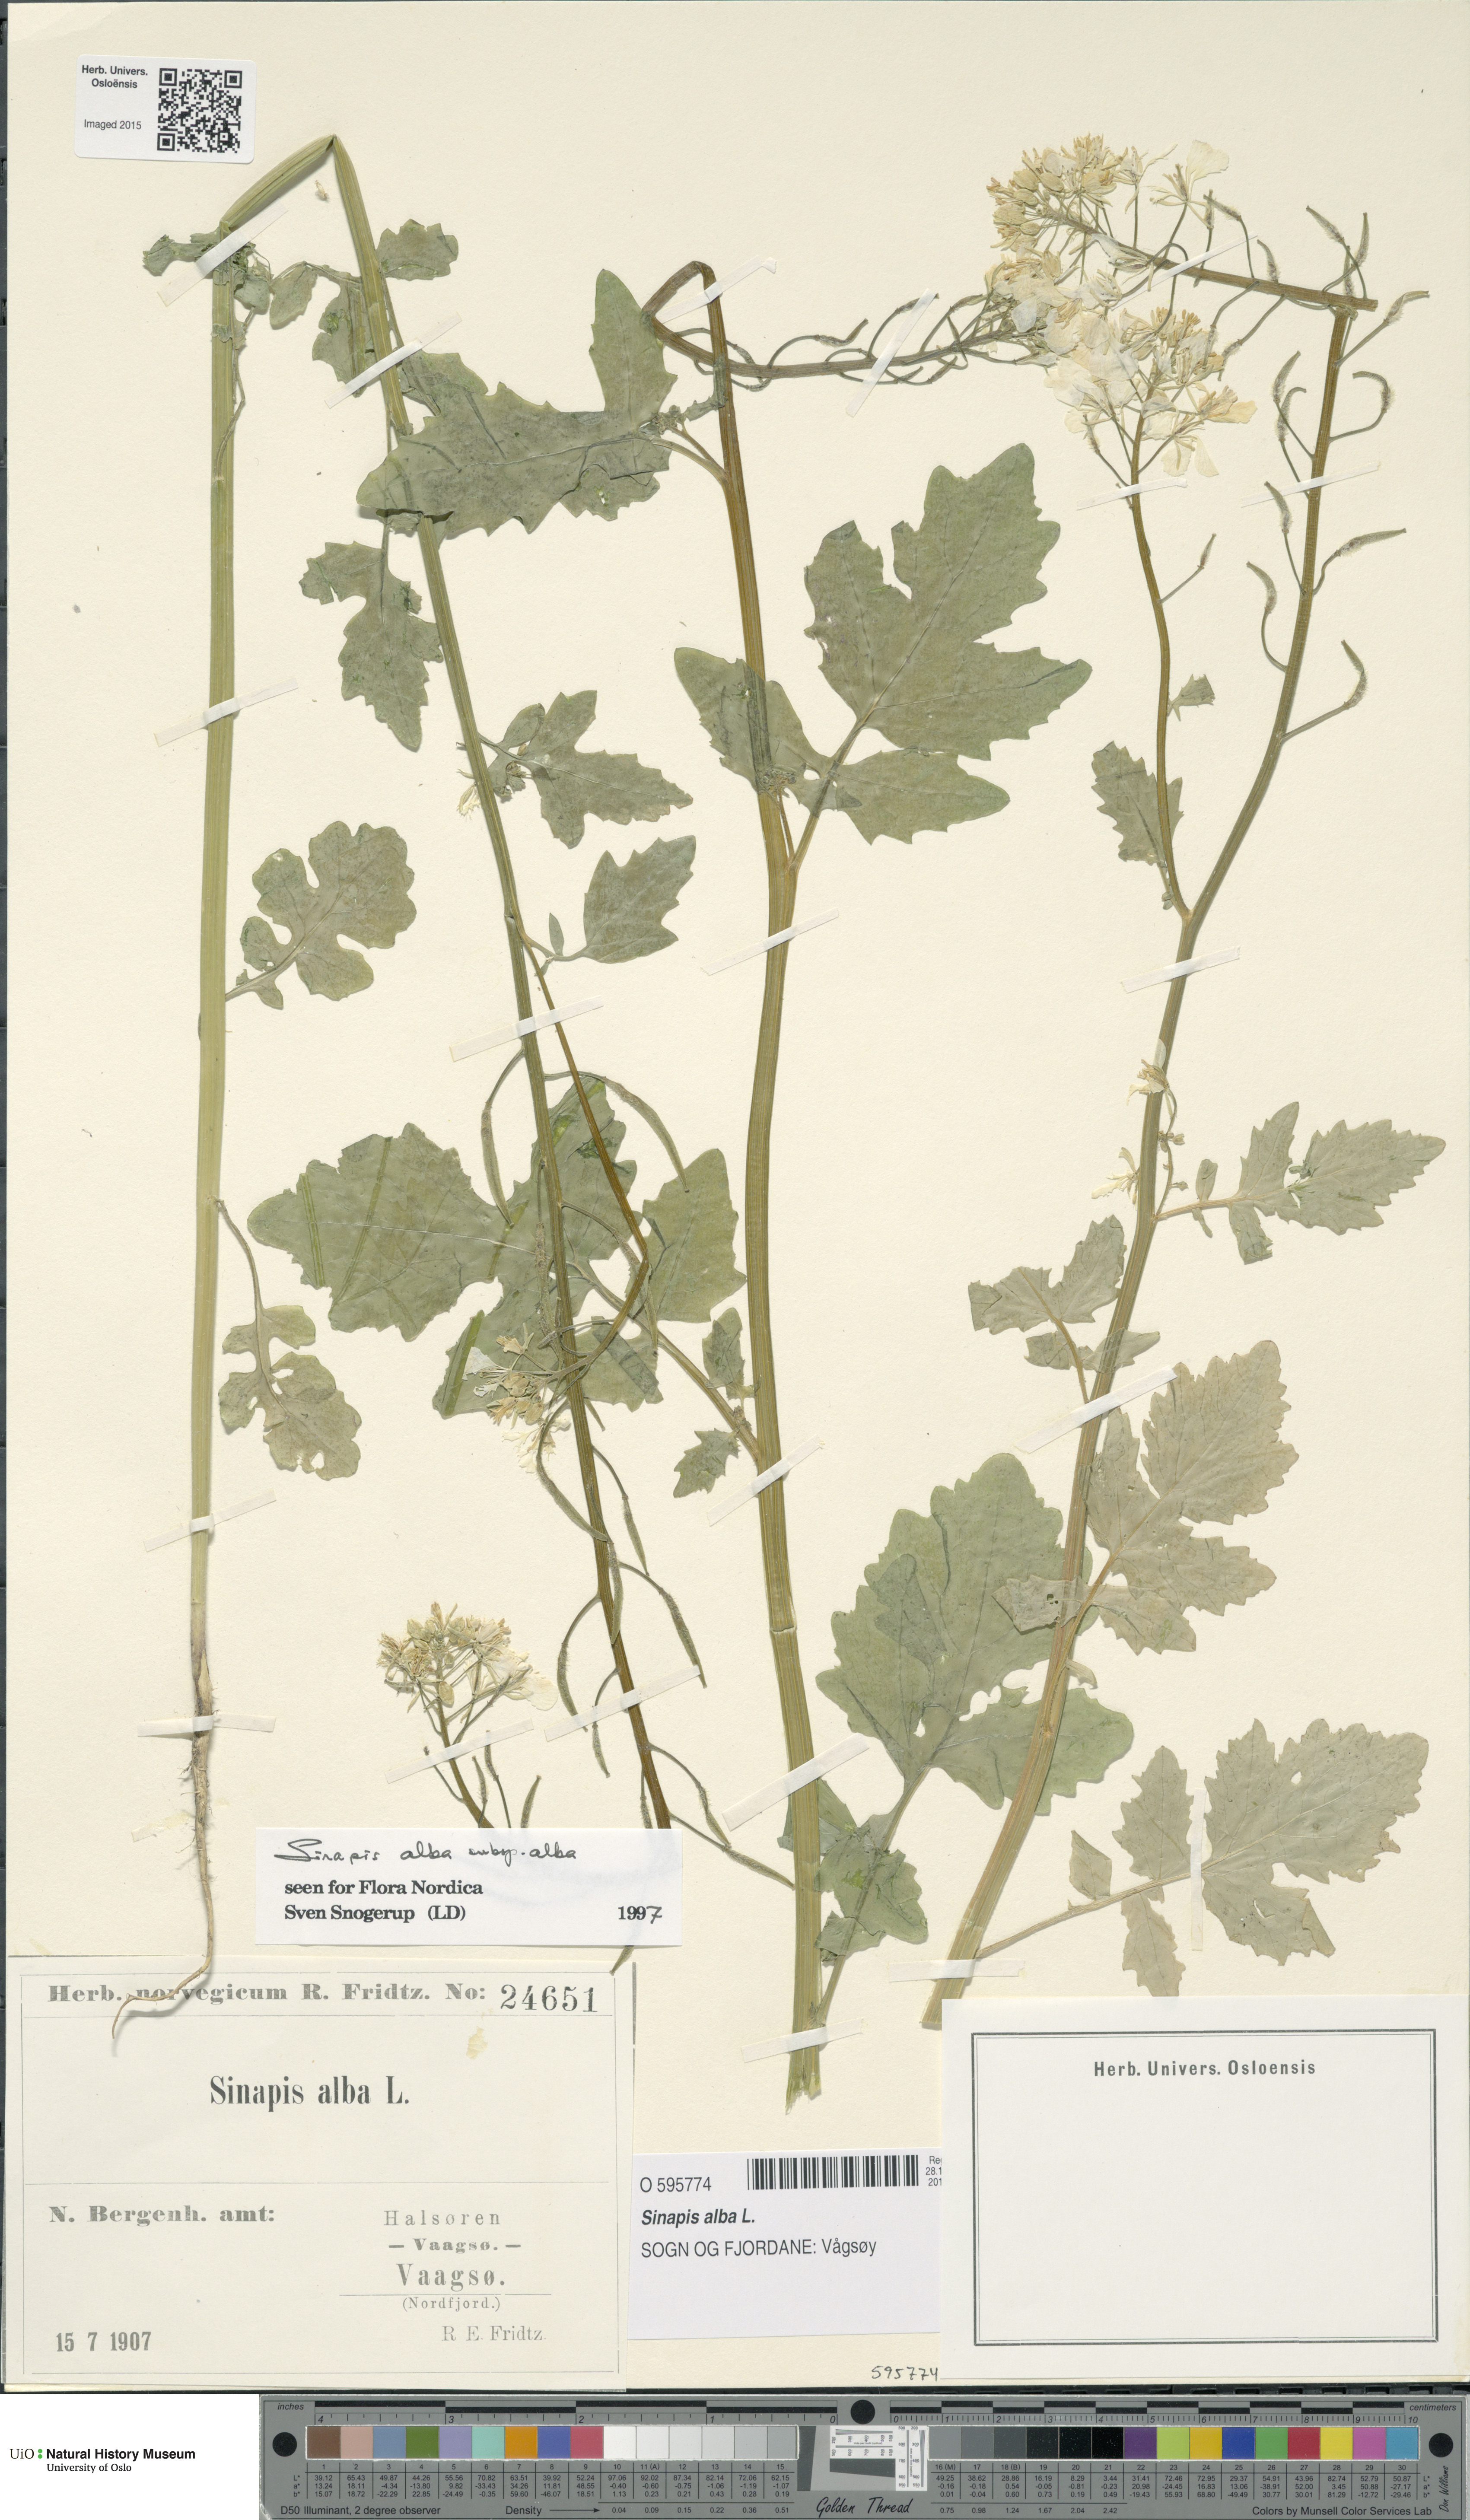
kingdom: Plantae
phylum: Tracheophyta
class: Magnoliopsida
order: Brassicales
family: Brassicaceae
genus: Sinapis
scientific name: Sinapis alba
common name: White mustard
